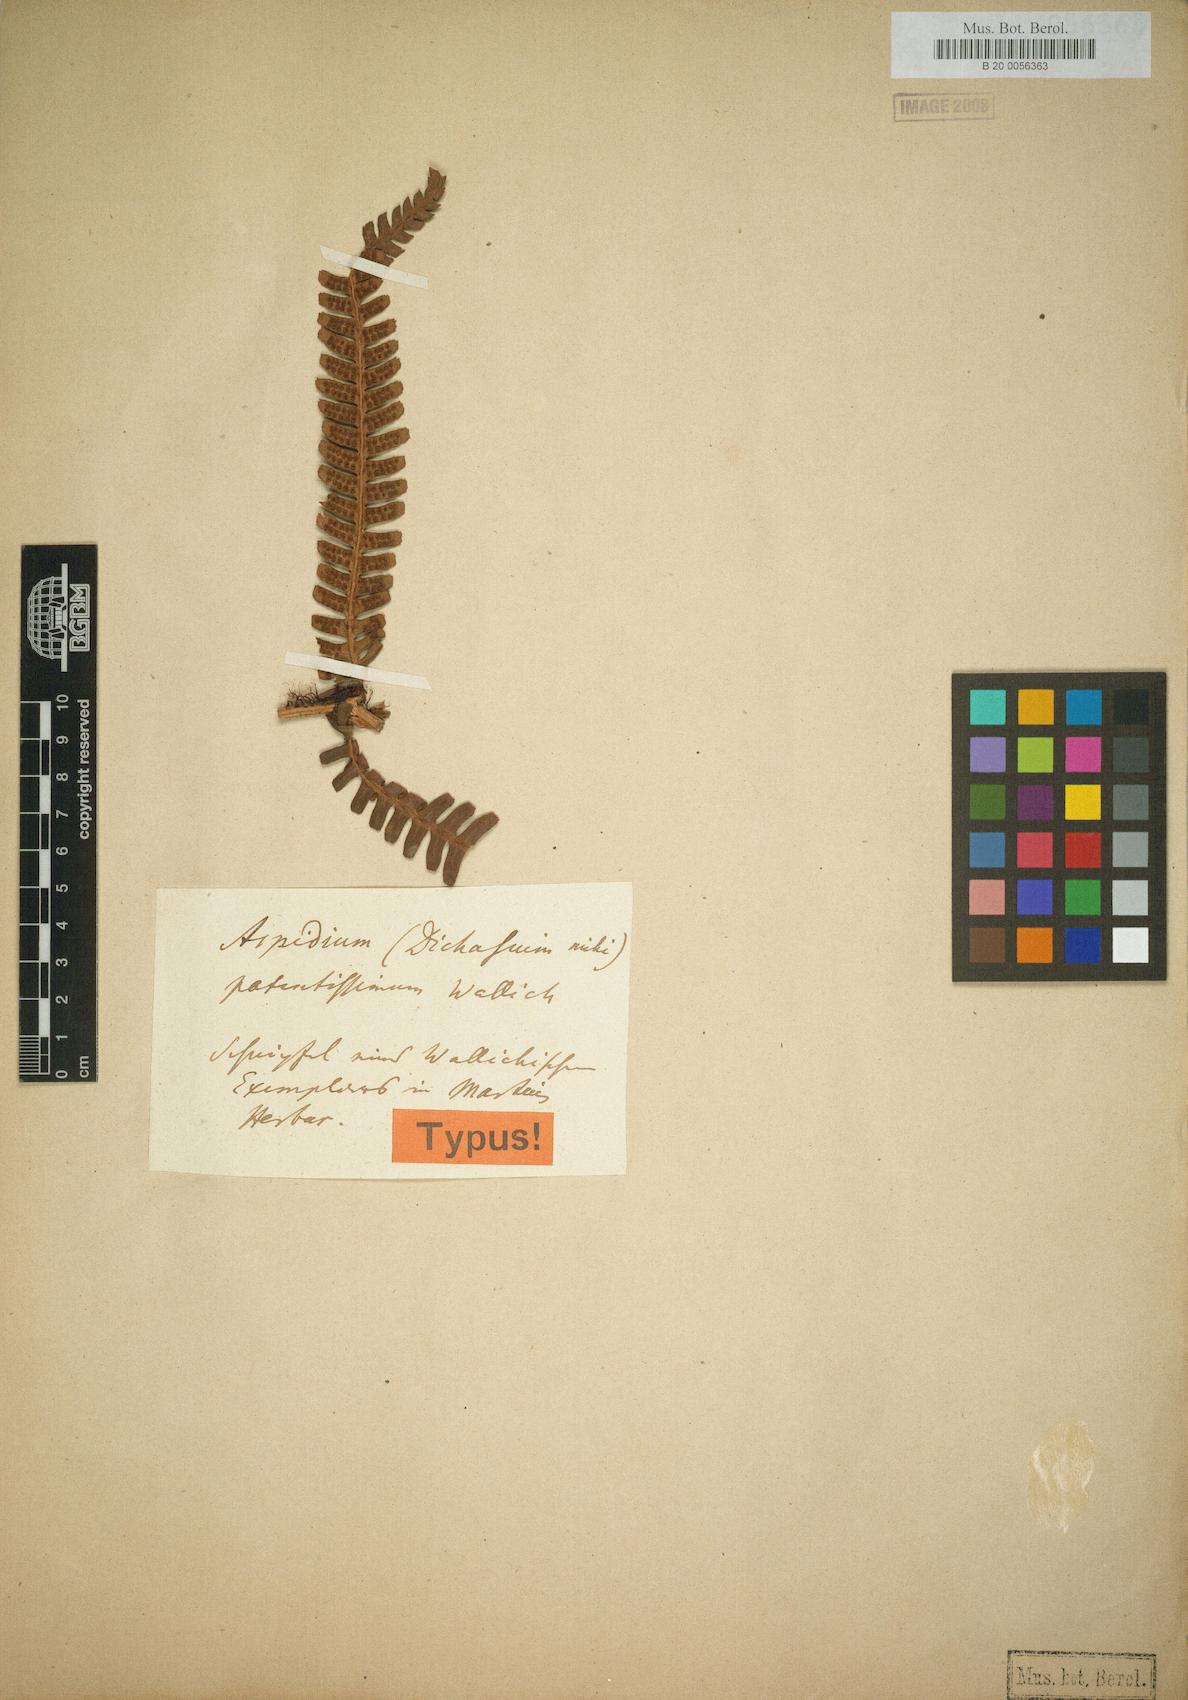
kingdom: Plantae
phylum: Tracheophyta
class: Polypodiopsida
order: Polypodiales
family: Dryopteridaceae
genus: Dryopteris
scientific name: Dryopteris wallichiana
